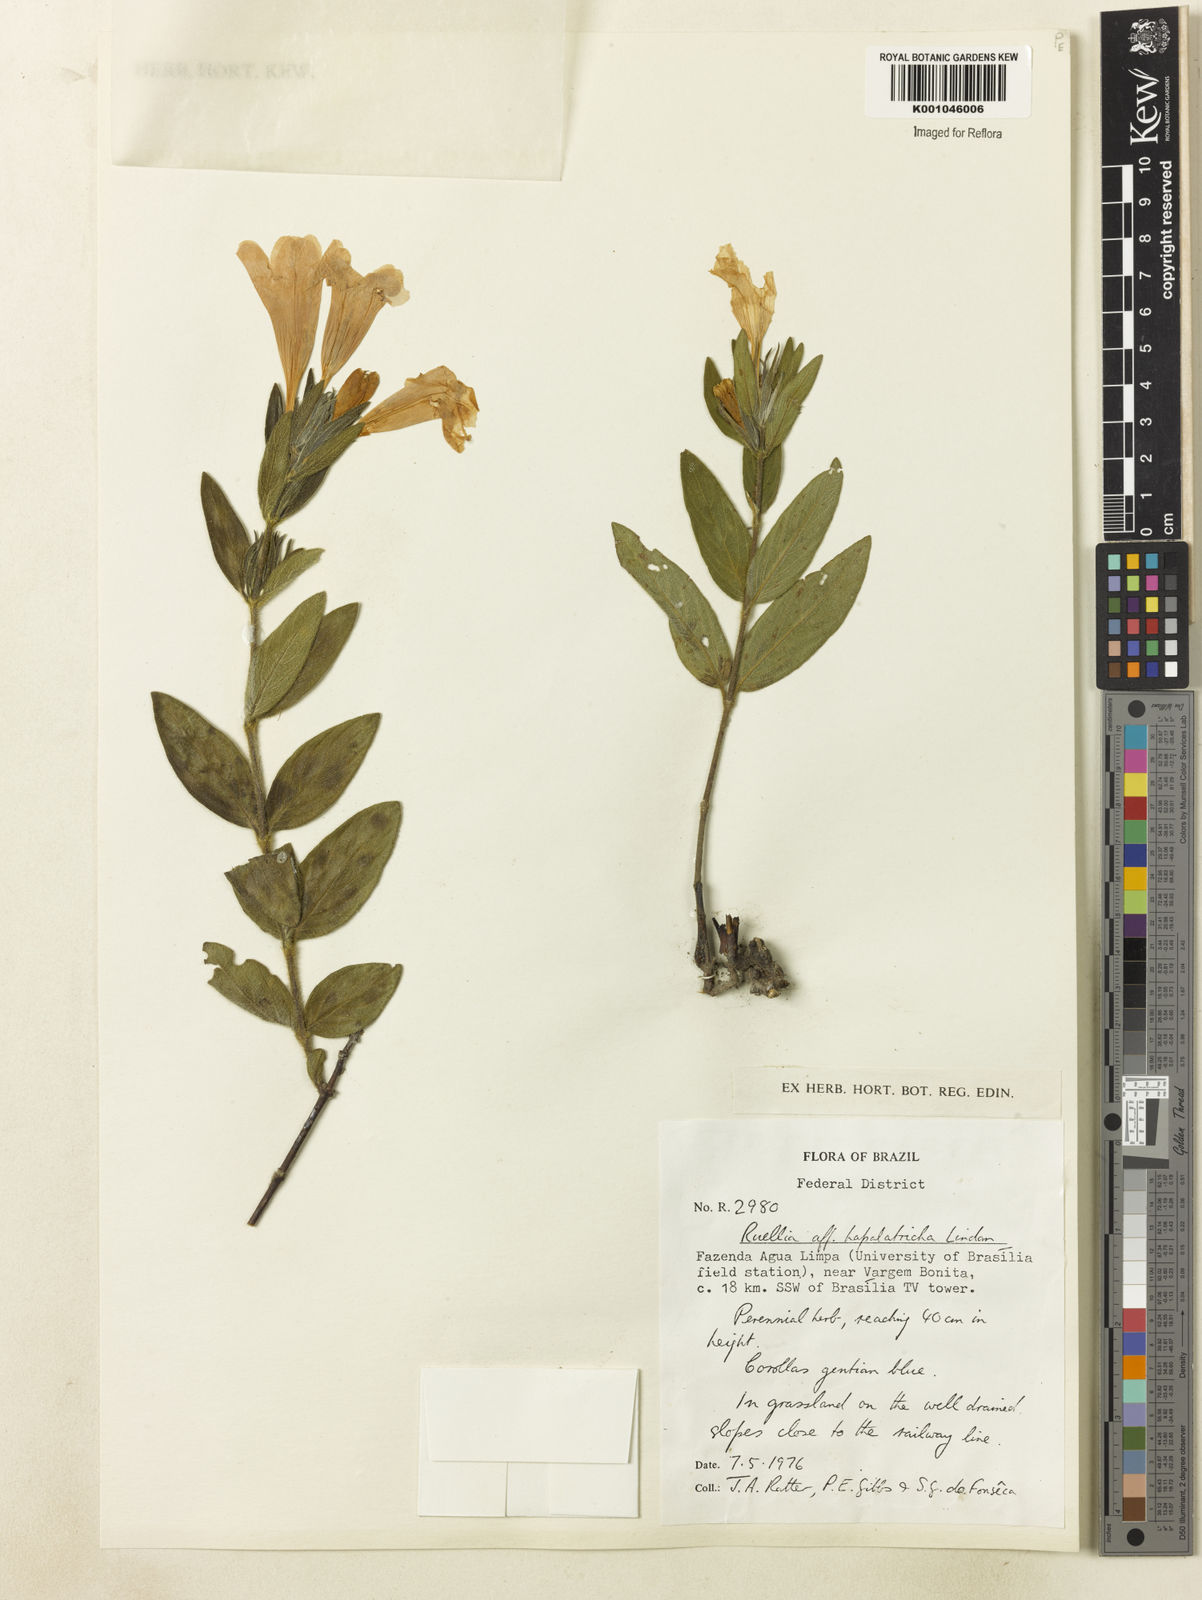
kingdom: Plantae
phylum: Tracheophyta
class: Magnoliopsida
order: Lamiales
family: Acanthaceae
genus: Ruellia
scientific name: Ruellia hapalotricha
